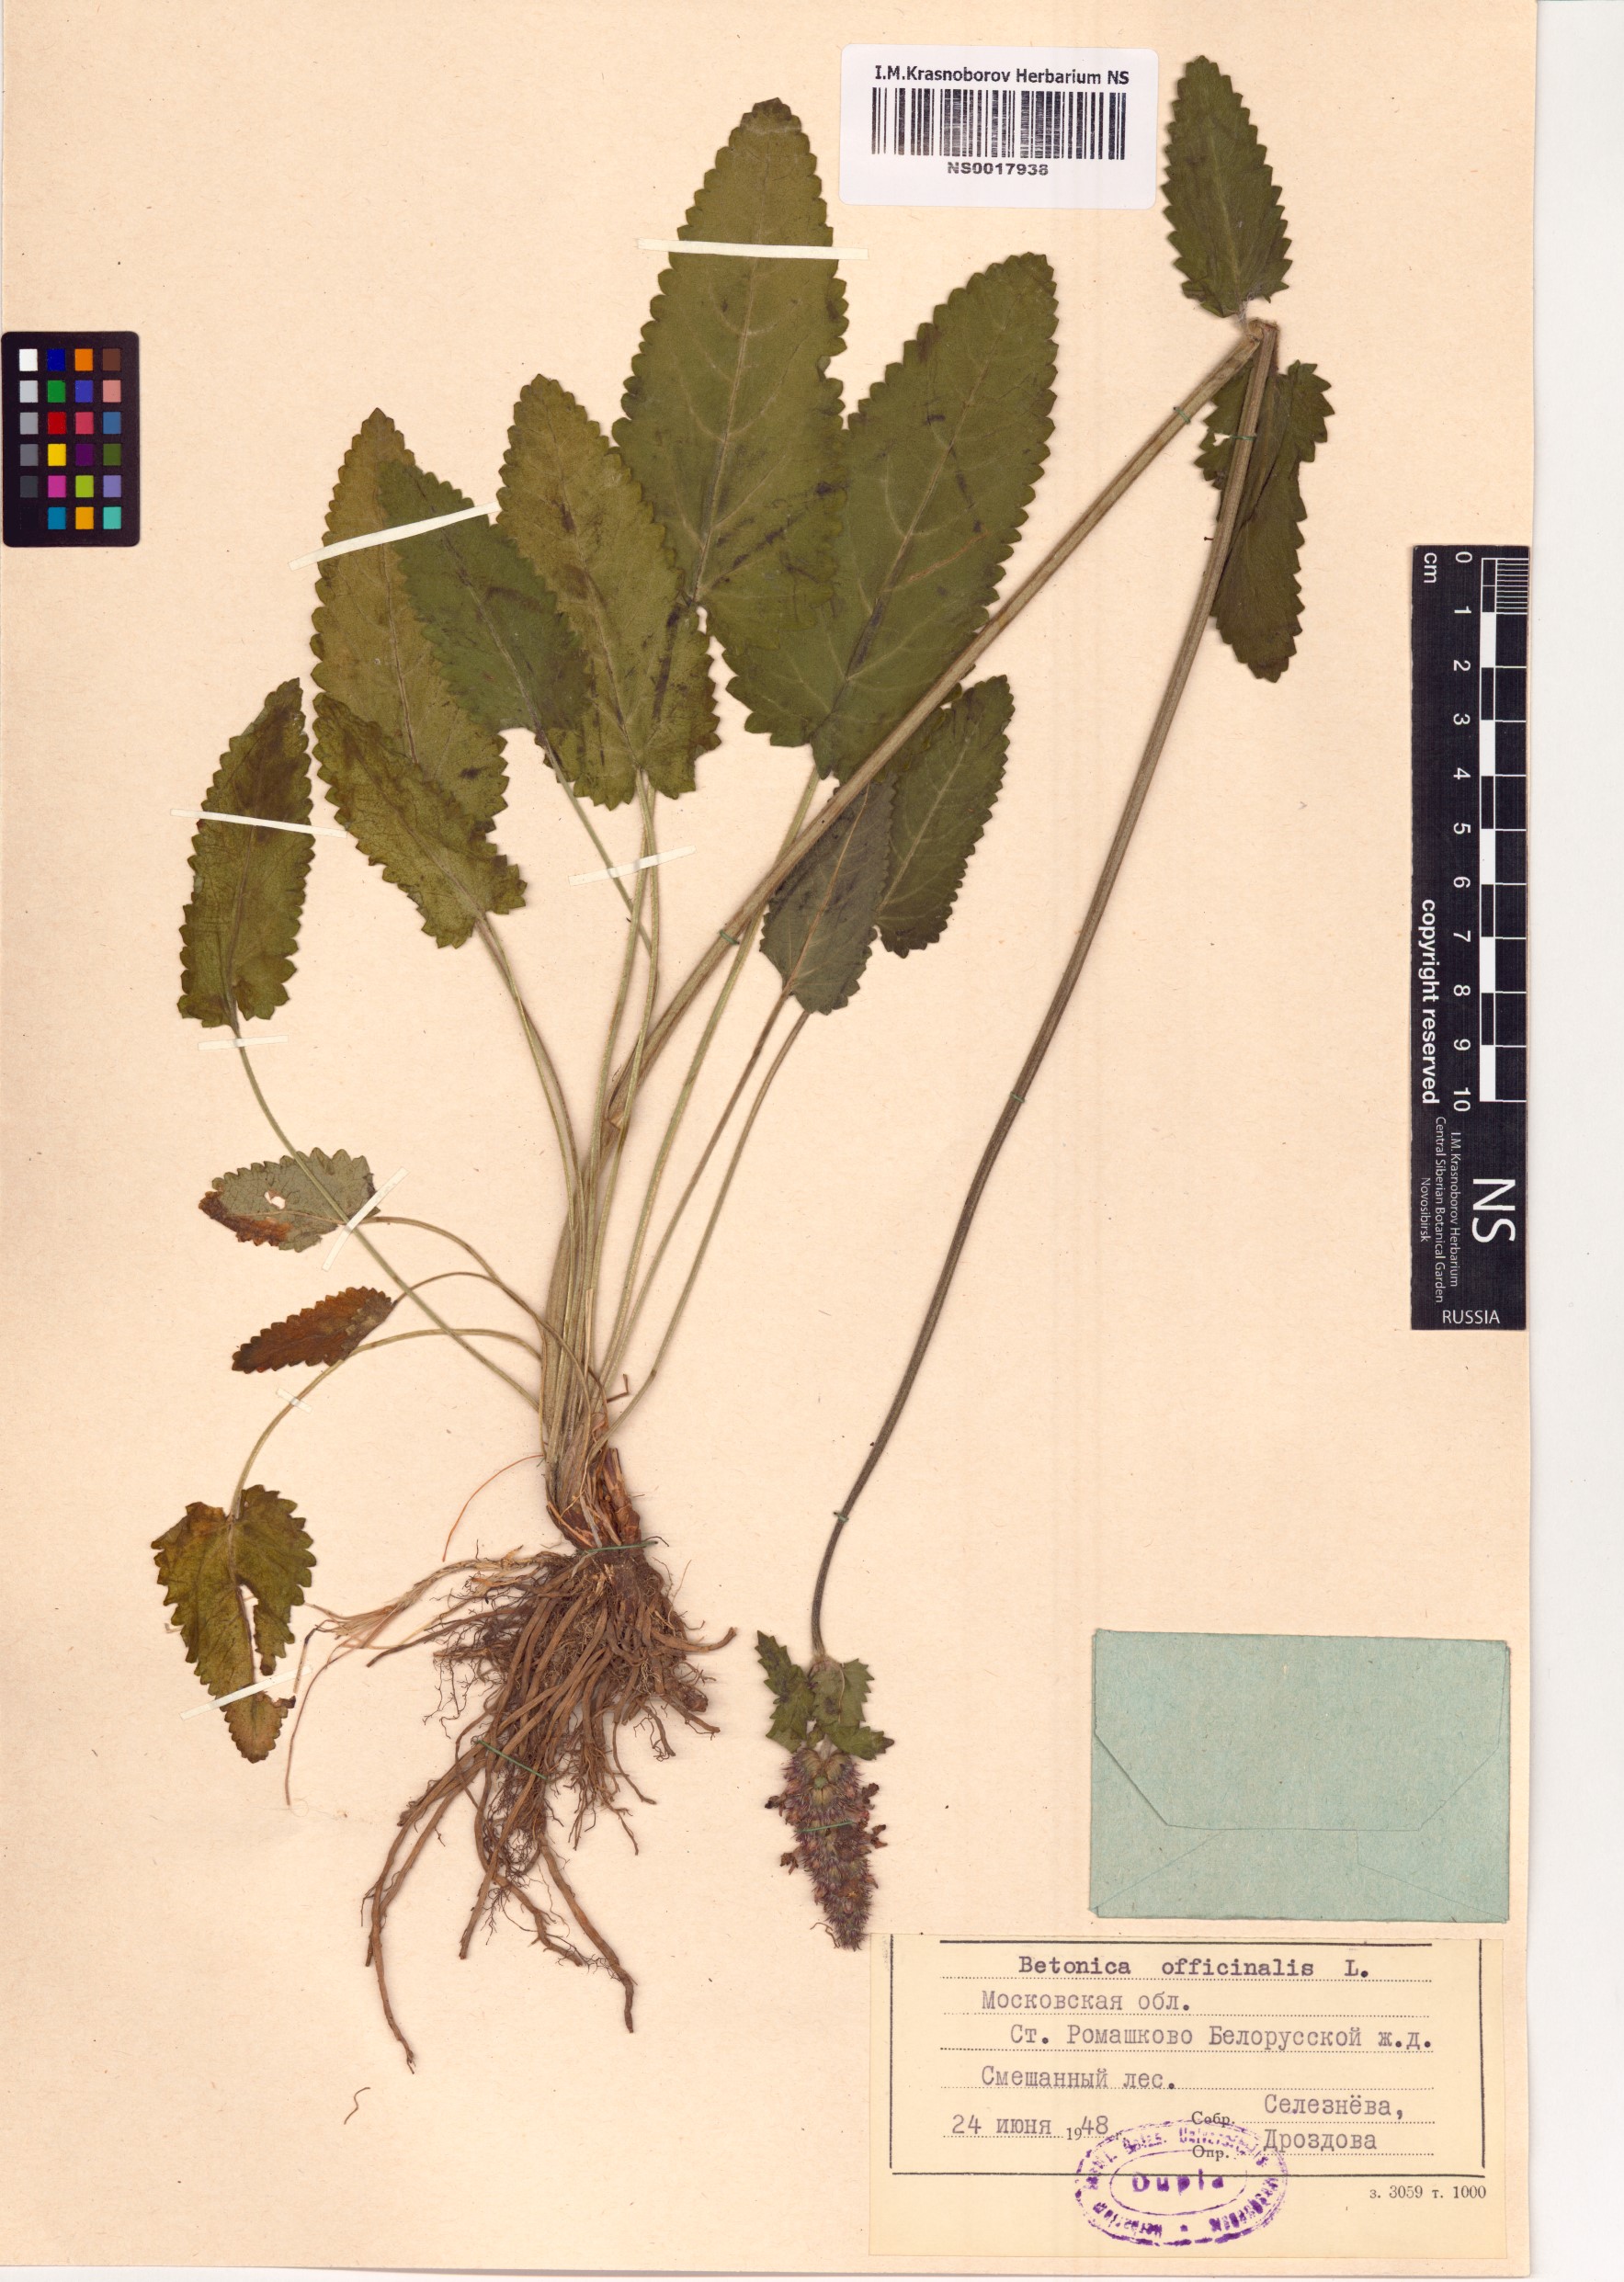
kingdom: Plantae
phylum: Tracheophyta
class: Magnoliopsida
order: Lamiales
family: Lamiaceae
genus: Betonica
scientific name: Betonica officinalis
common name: Bishop's-wort
